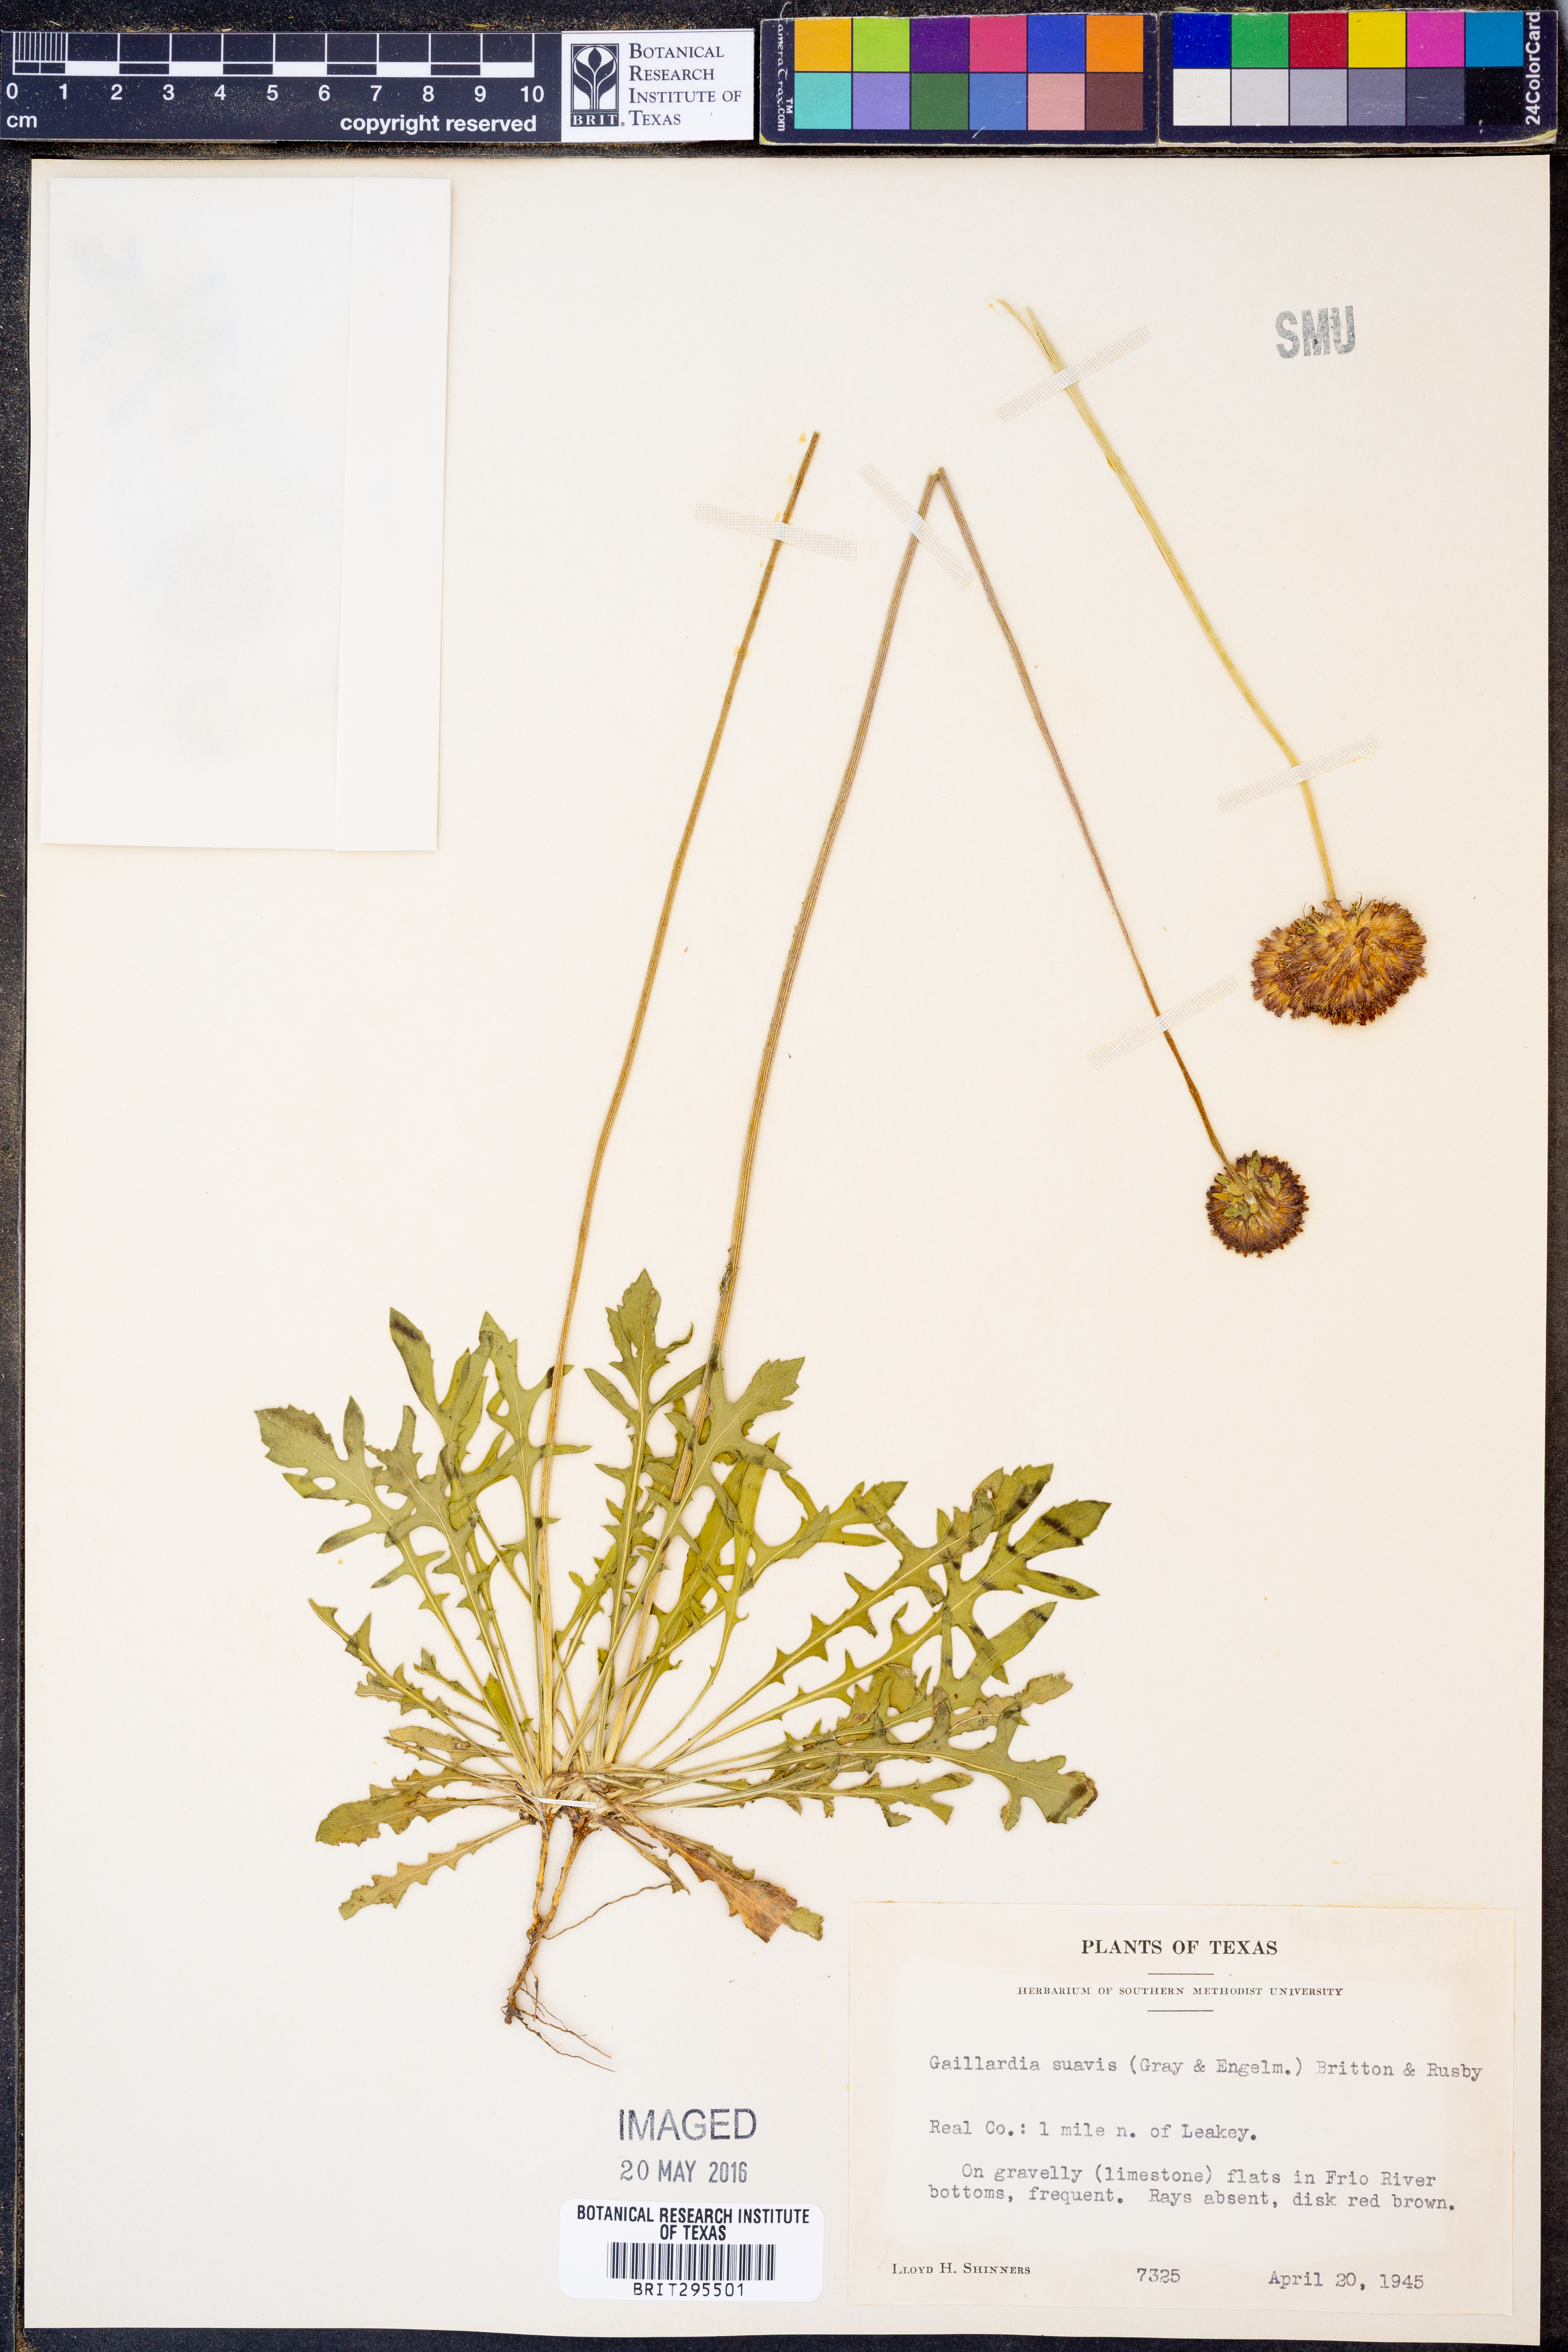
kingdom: Plantae
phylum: Tracheophyta
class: Magnoliopsida
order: Asterales
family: Asteraceae
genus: Gaillardia
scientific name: Gaillardia suavis
